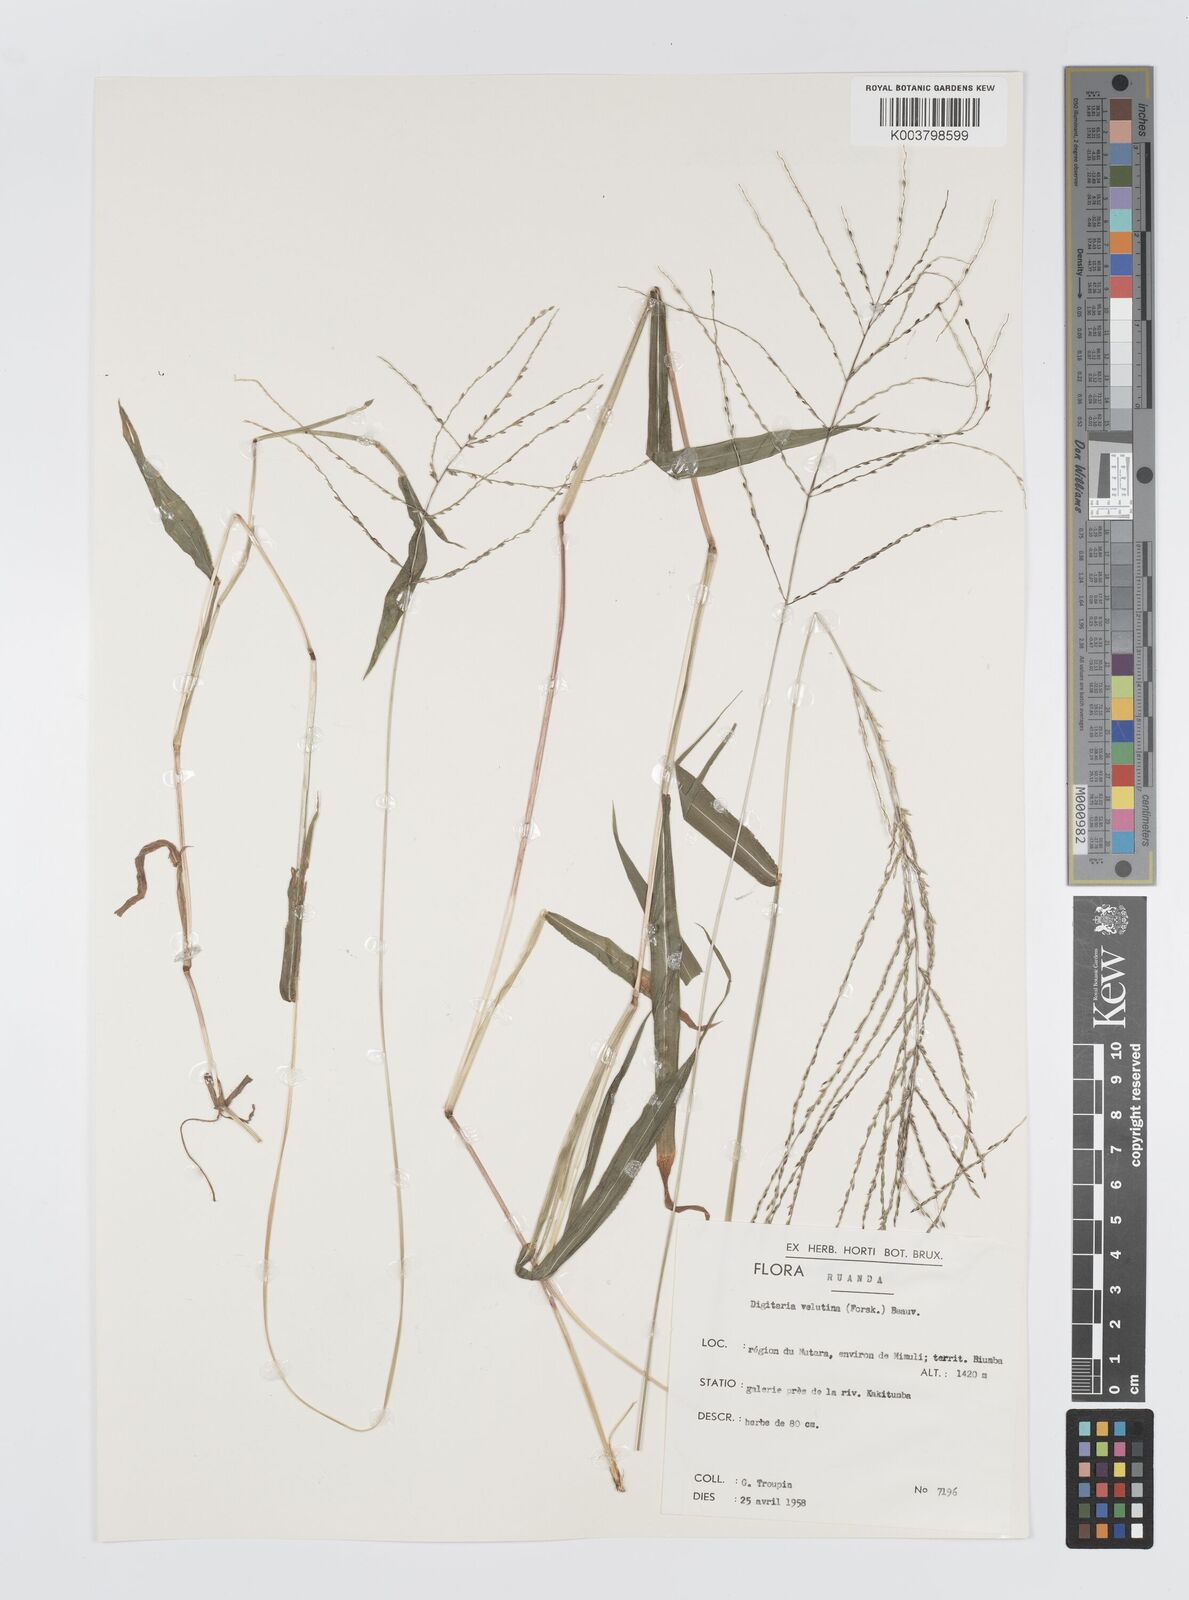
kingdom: Plantae
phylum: Tracheophyta
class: Liliopsida
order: Poales
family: Poaceae
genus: Digitaria
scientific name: Digitaria pearsonii
